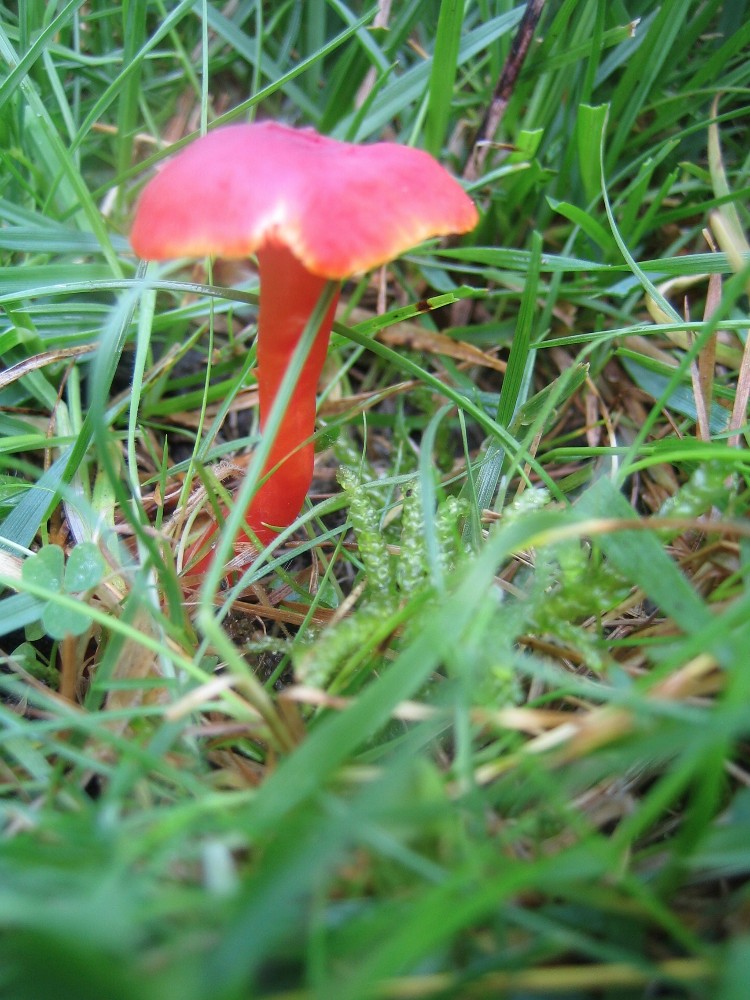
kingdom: Fungi
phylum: Basidiomycota
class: Agaricomycetes
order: Agaricales
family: Hygrophoraceae
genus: Hygrocybe
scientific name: Hygrocybe phaeococcinea
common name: sortdugget vokshat
